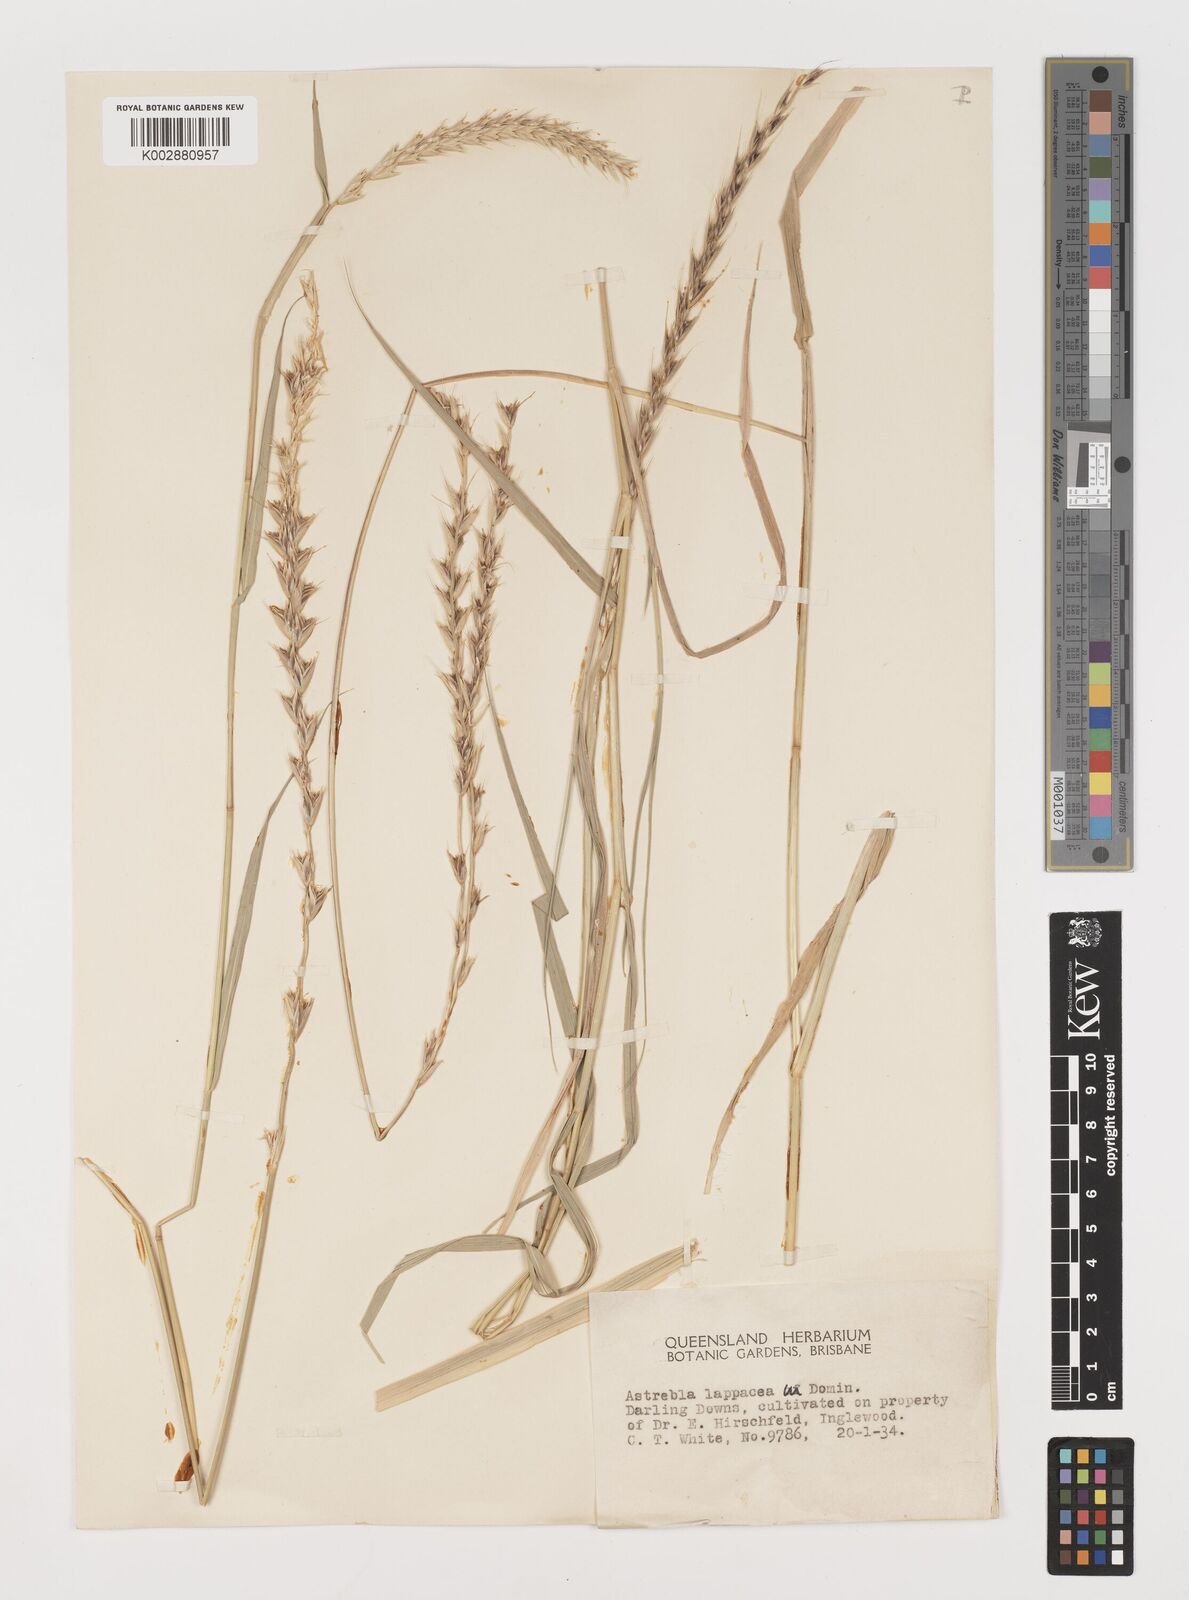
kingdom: Plantae
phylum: Tracheophyta
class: Liliopsida
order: Poales
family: Poaceae
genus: Astrebla
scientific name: Astrebla lappacea
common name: Curly mitchell grass
